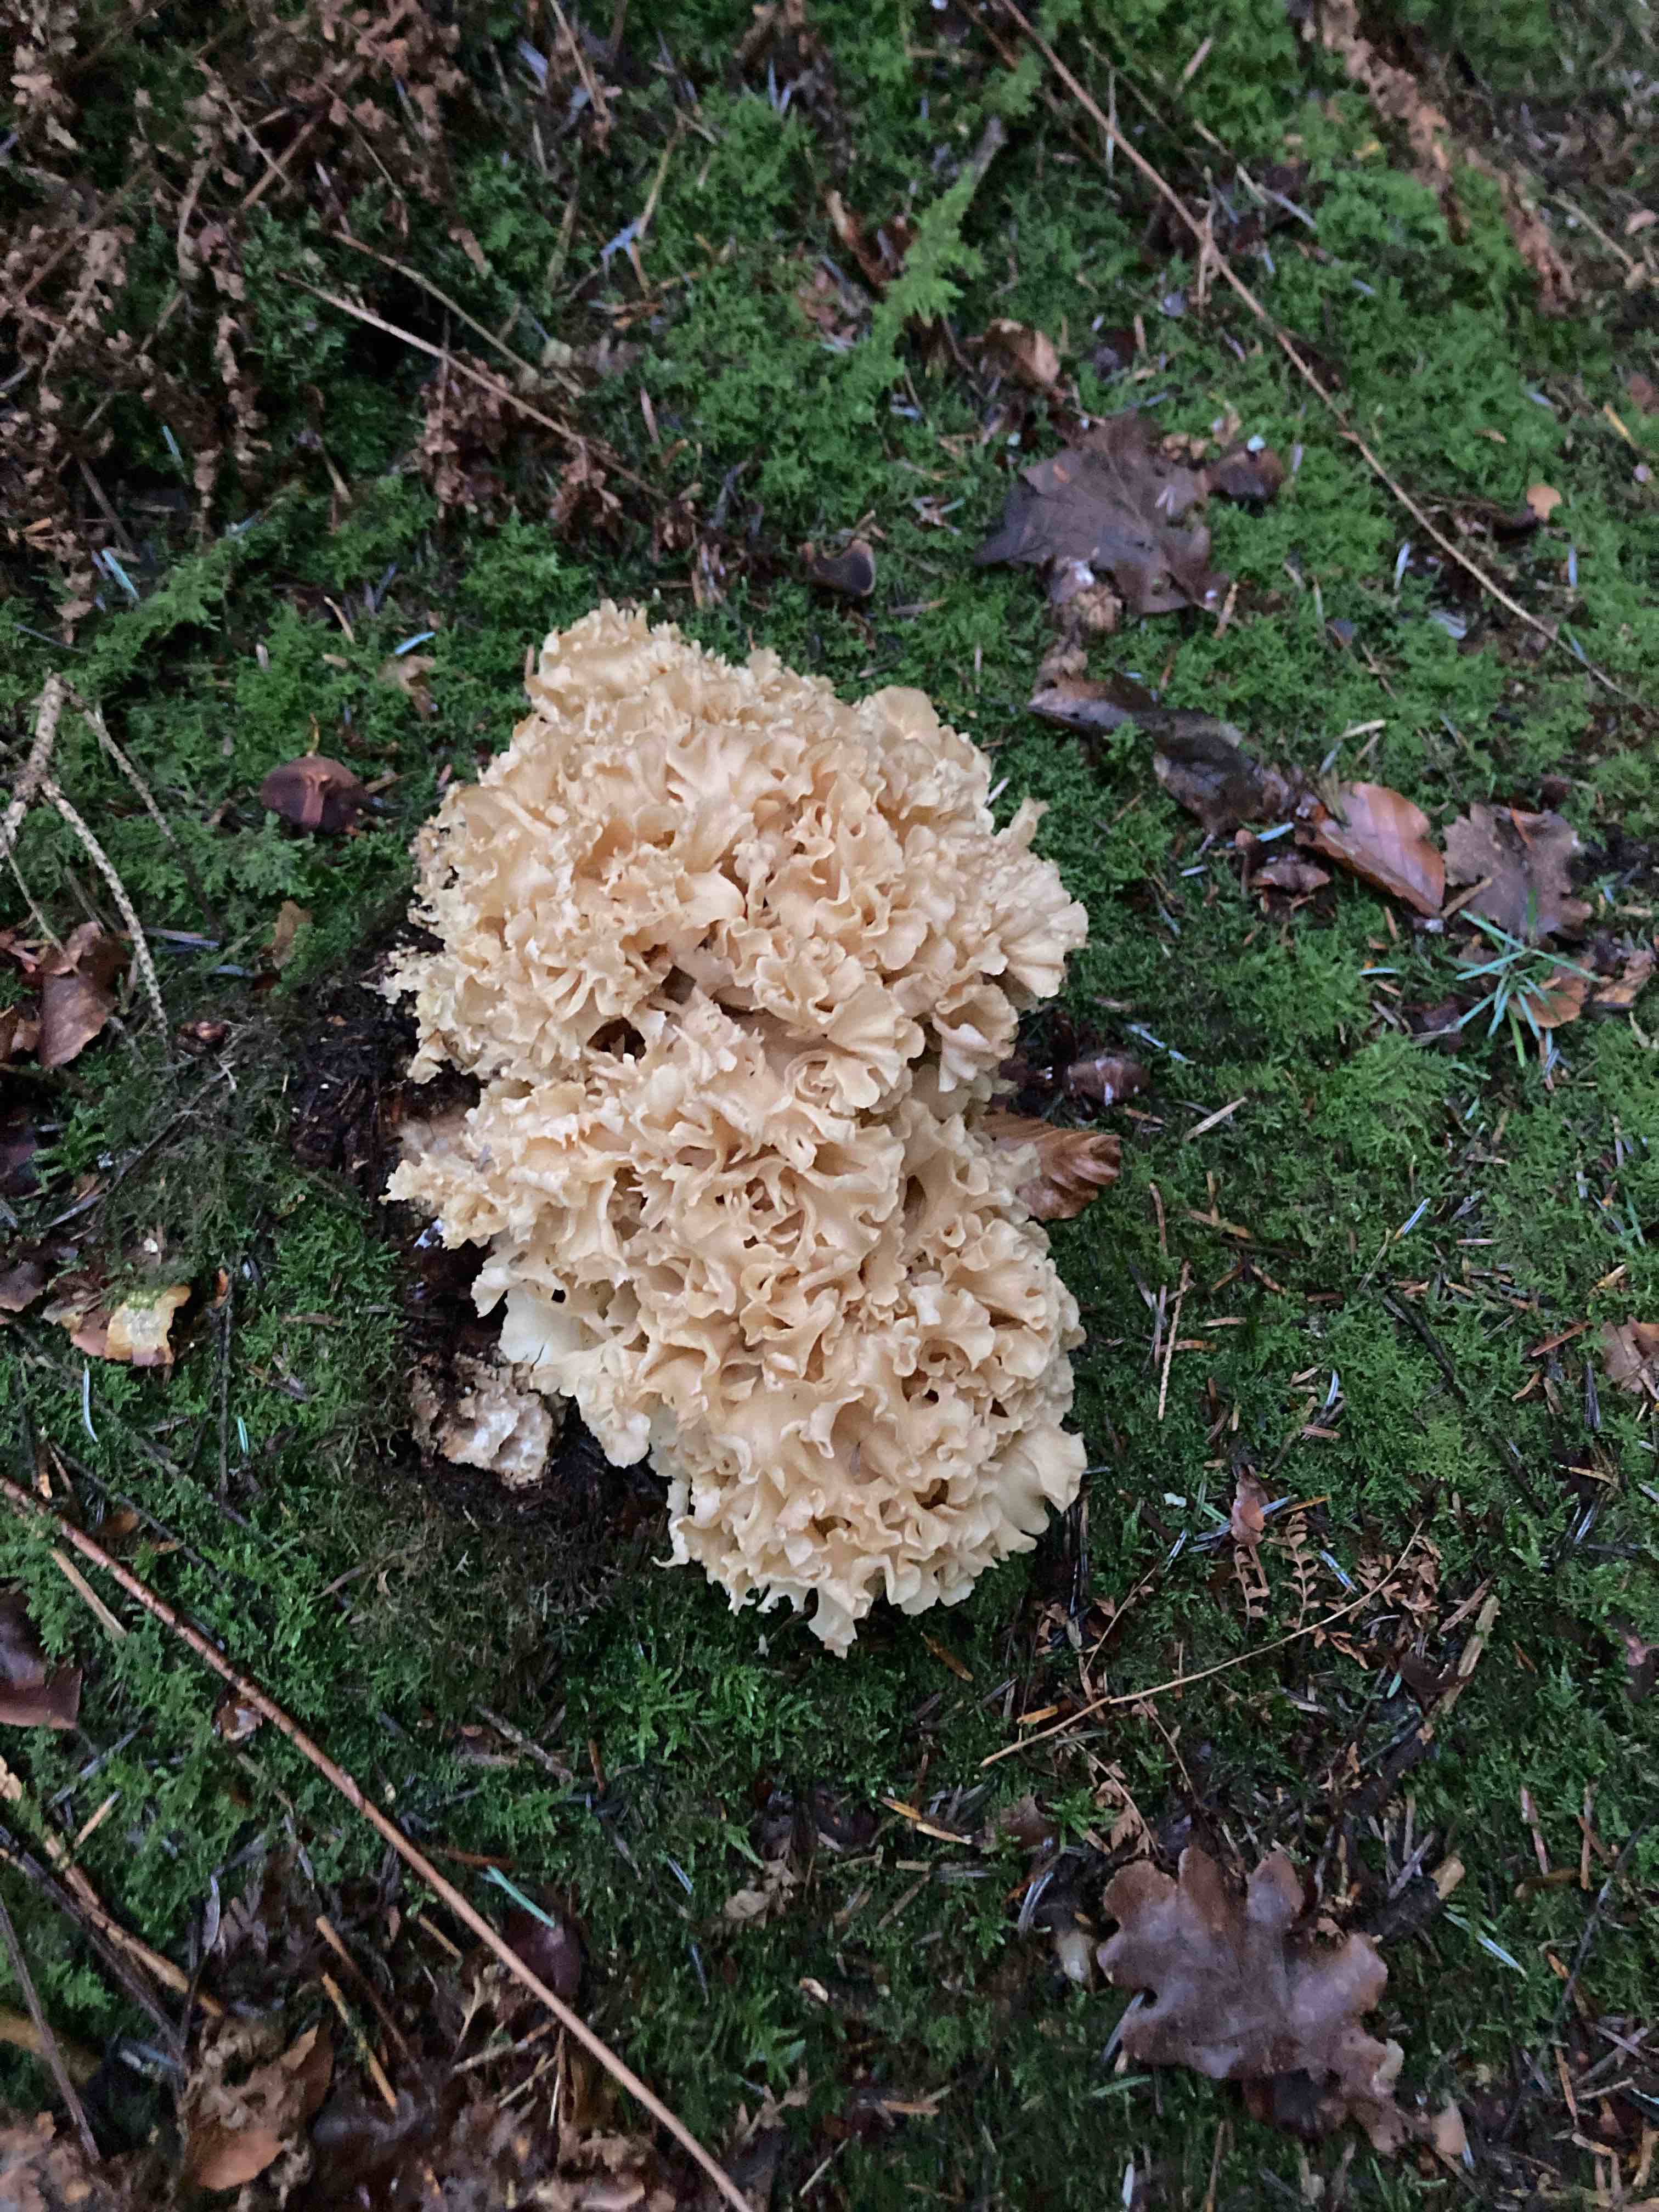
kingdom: Fungi
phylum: Basidiomycota
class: Agaricomycetes
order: Polyporales
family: Sparassidaceae
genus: Sparassis
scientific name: Sparassis crispa
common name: kruset blomkålssvamp
